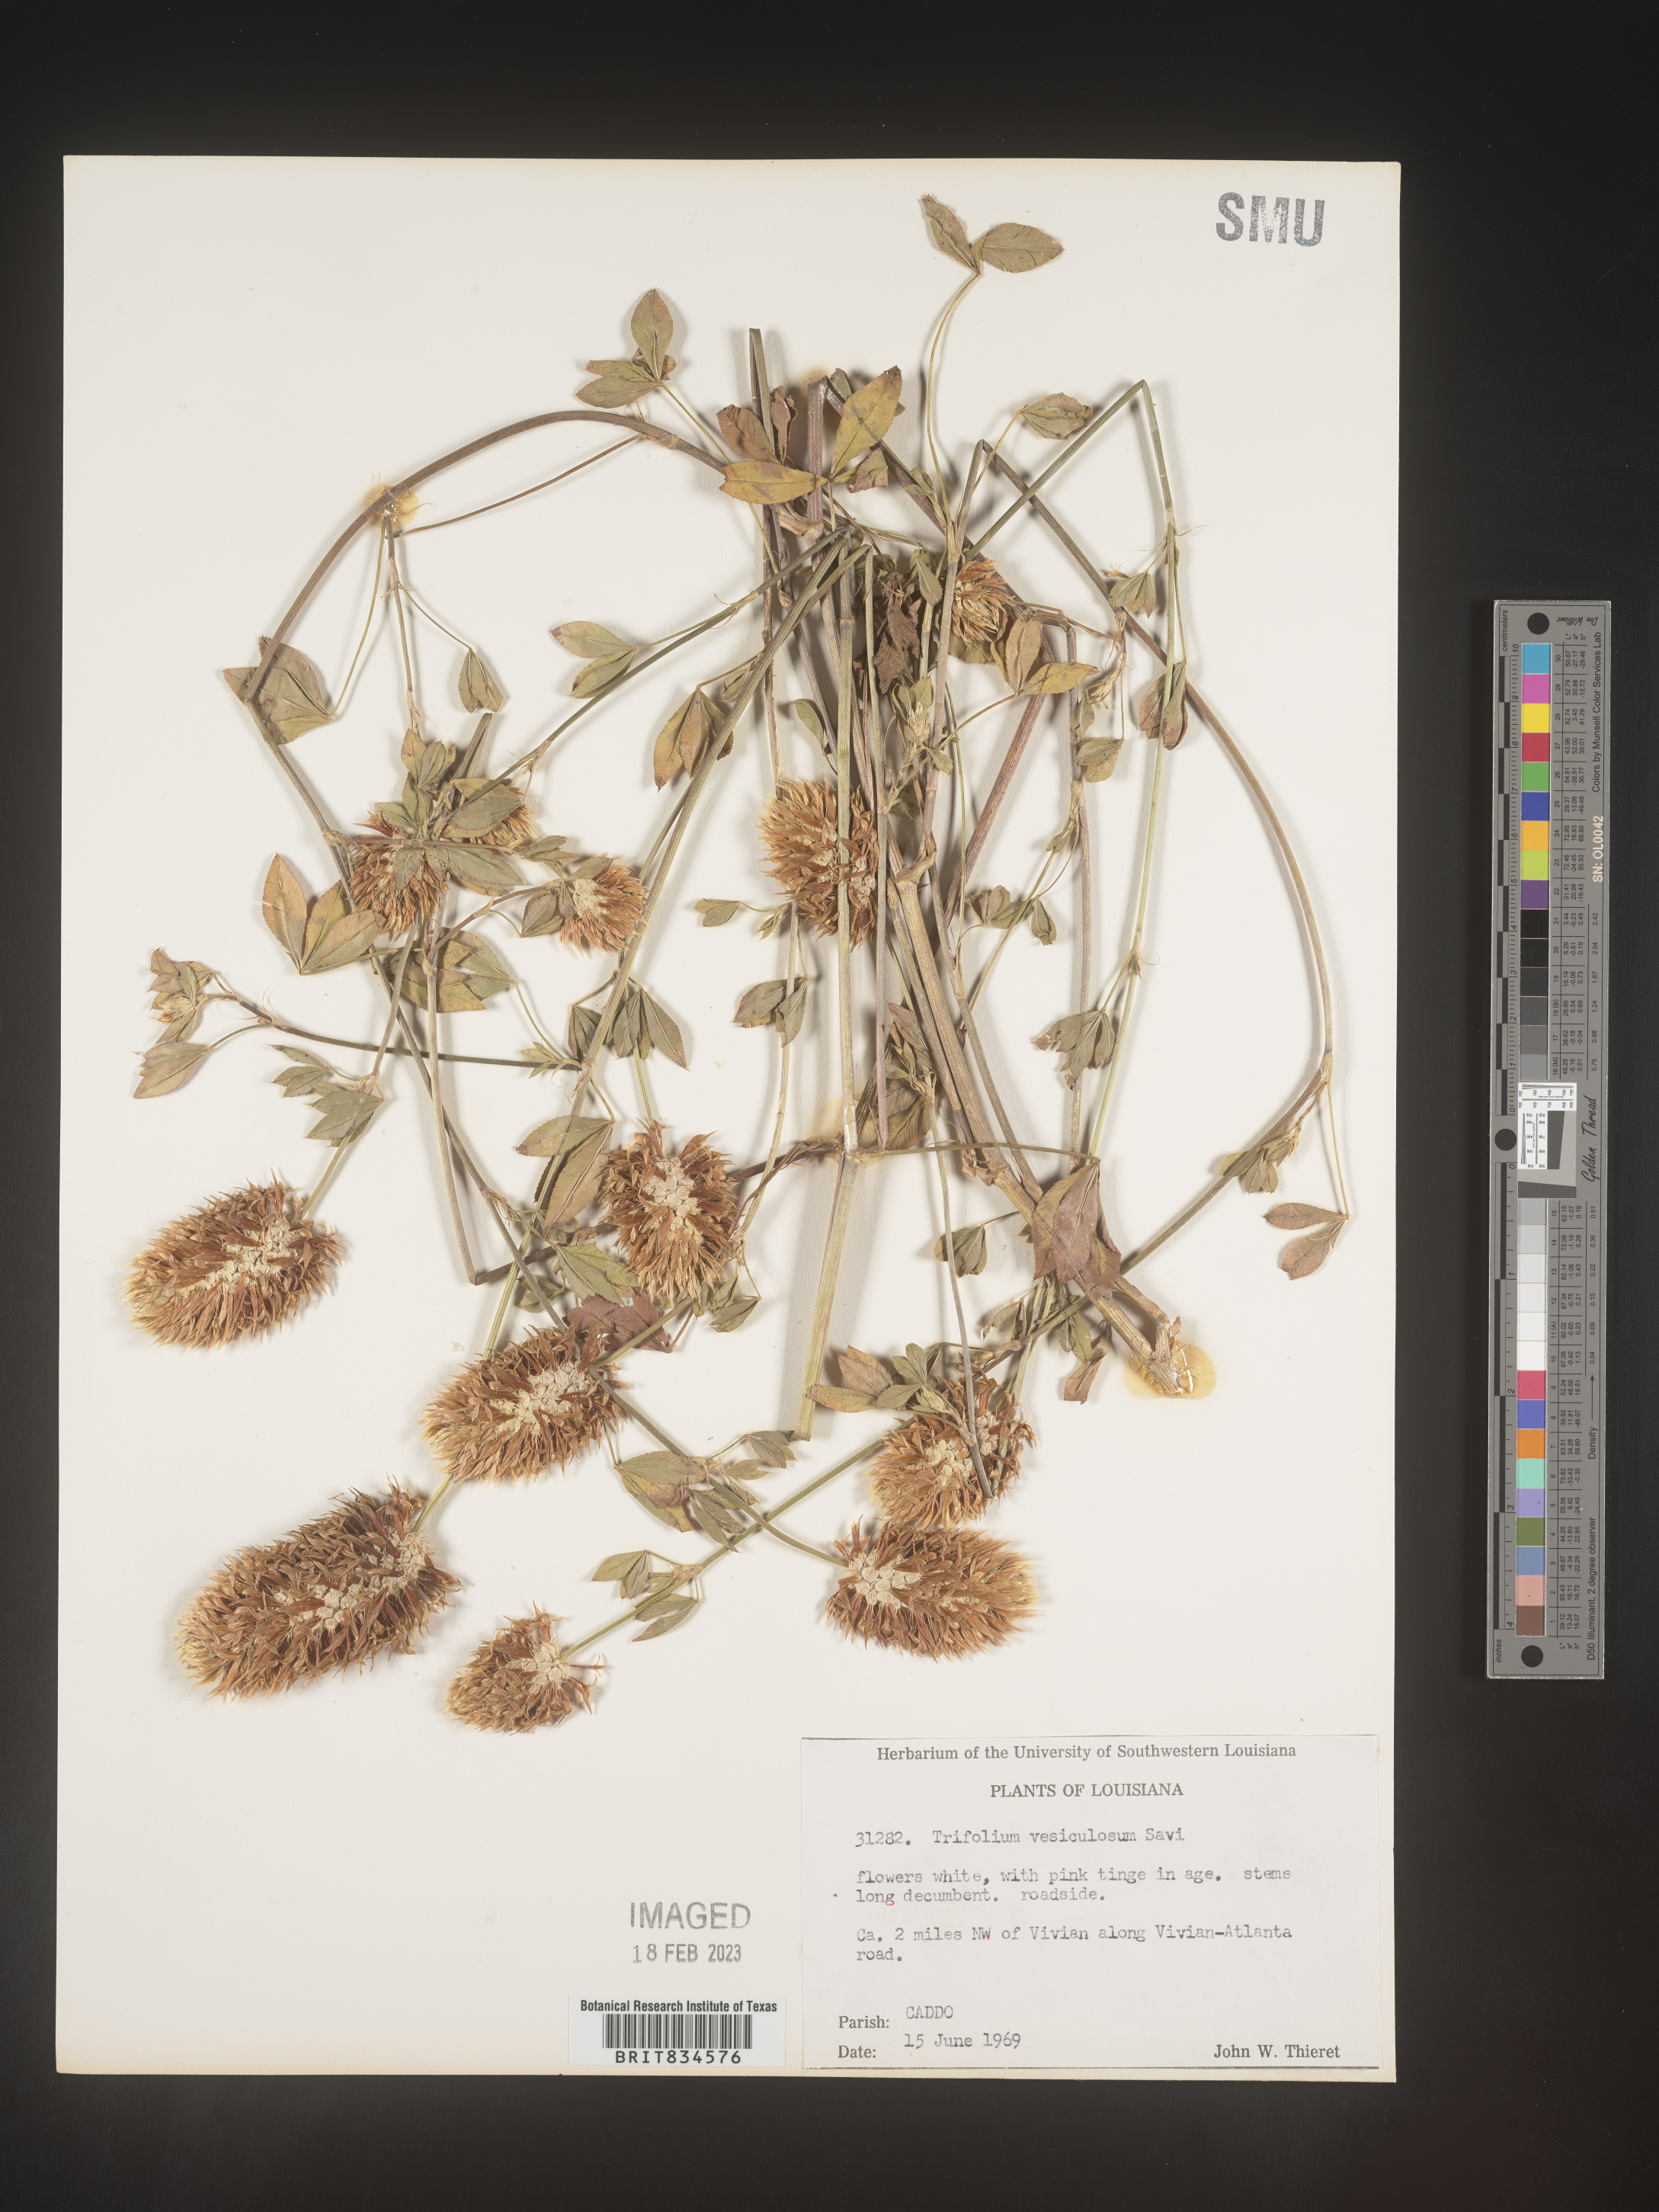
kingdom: Plantae
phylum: Tracheophyta
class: Magnoliopsida
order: Fabales
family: Fabaceae
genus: Trifolium
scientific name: Trifolium
